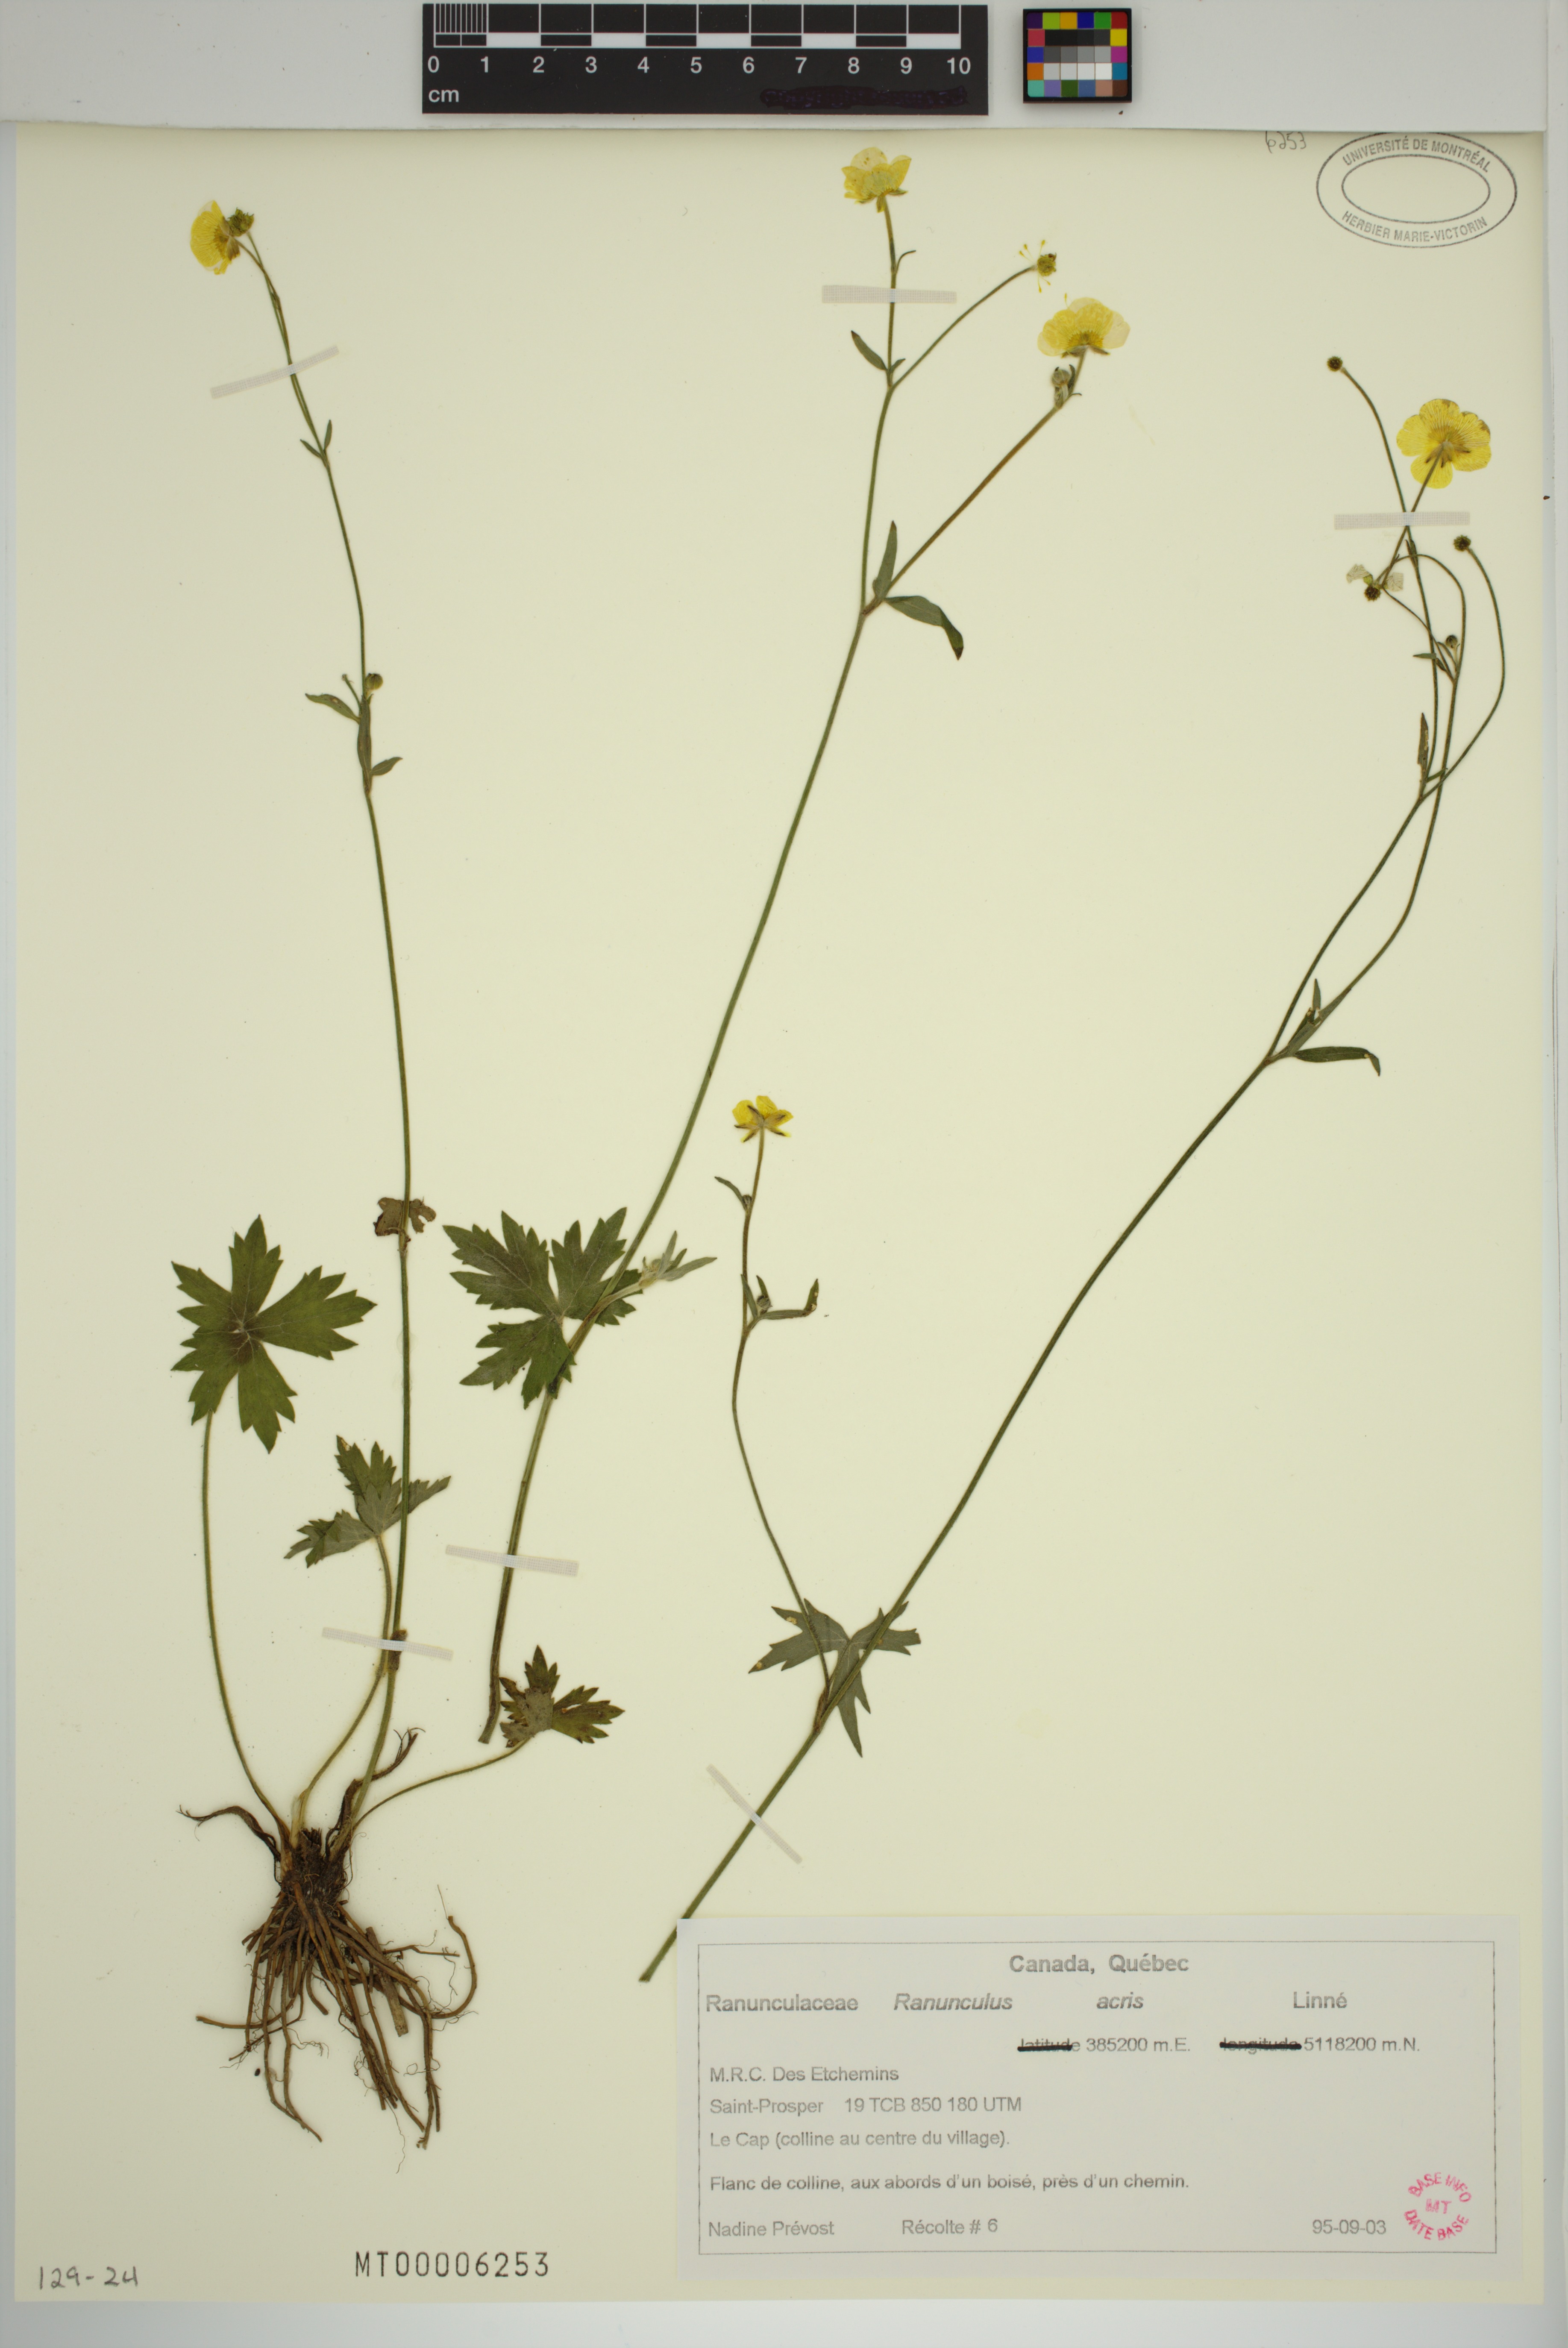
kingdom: Plantae
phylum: Tracheophyta
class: Magnoliopsida
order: Ranunculales
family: Ranunculaceae
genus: Ranunculus
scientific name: Ranunculus acris
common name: Meadow buttercup
